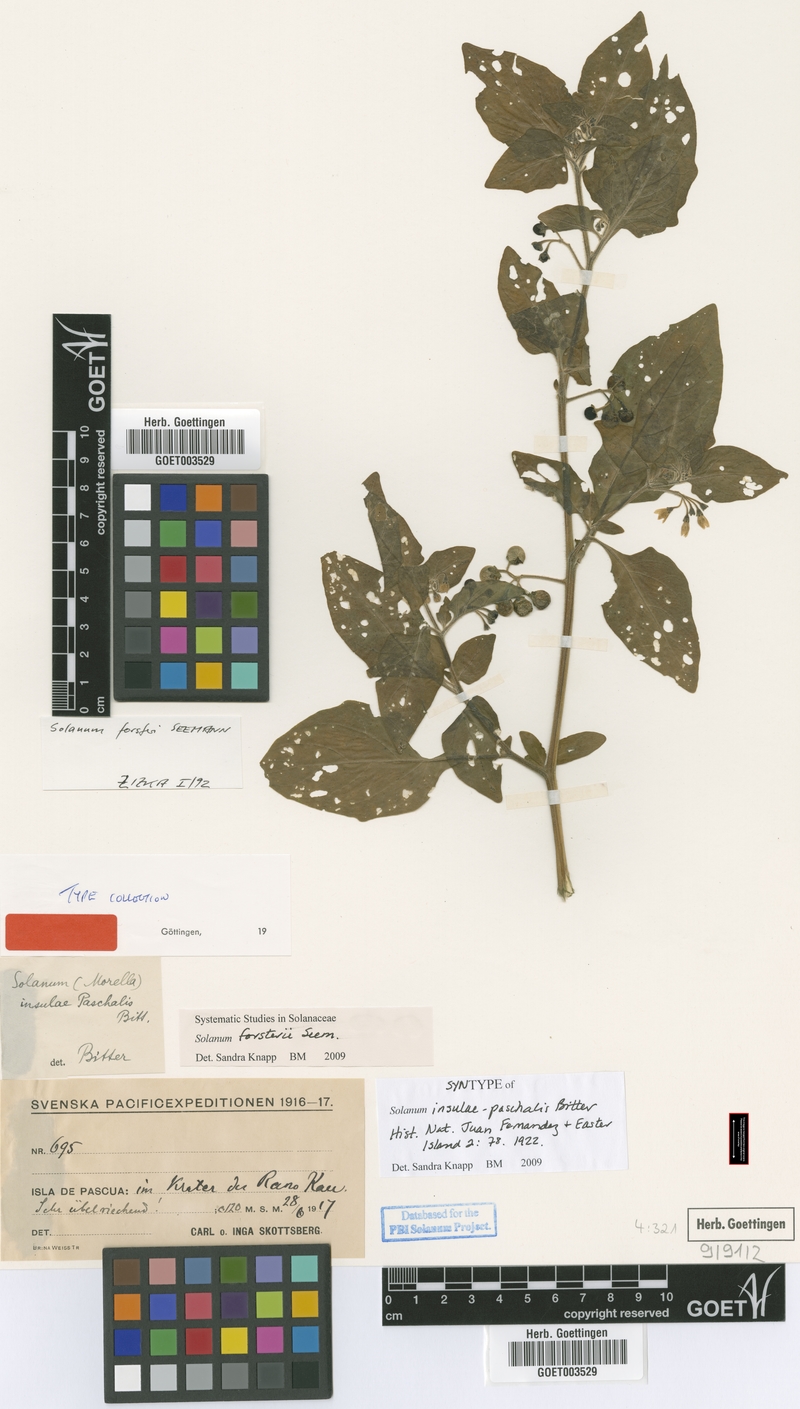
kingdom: Plantae
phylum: Tracheophyta
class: Magnoliopsida
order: Solanales
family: Solanaceae
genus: Solanum
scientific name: Solanum opacum
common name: Green-berry nightshade
